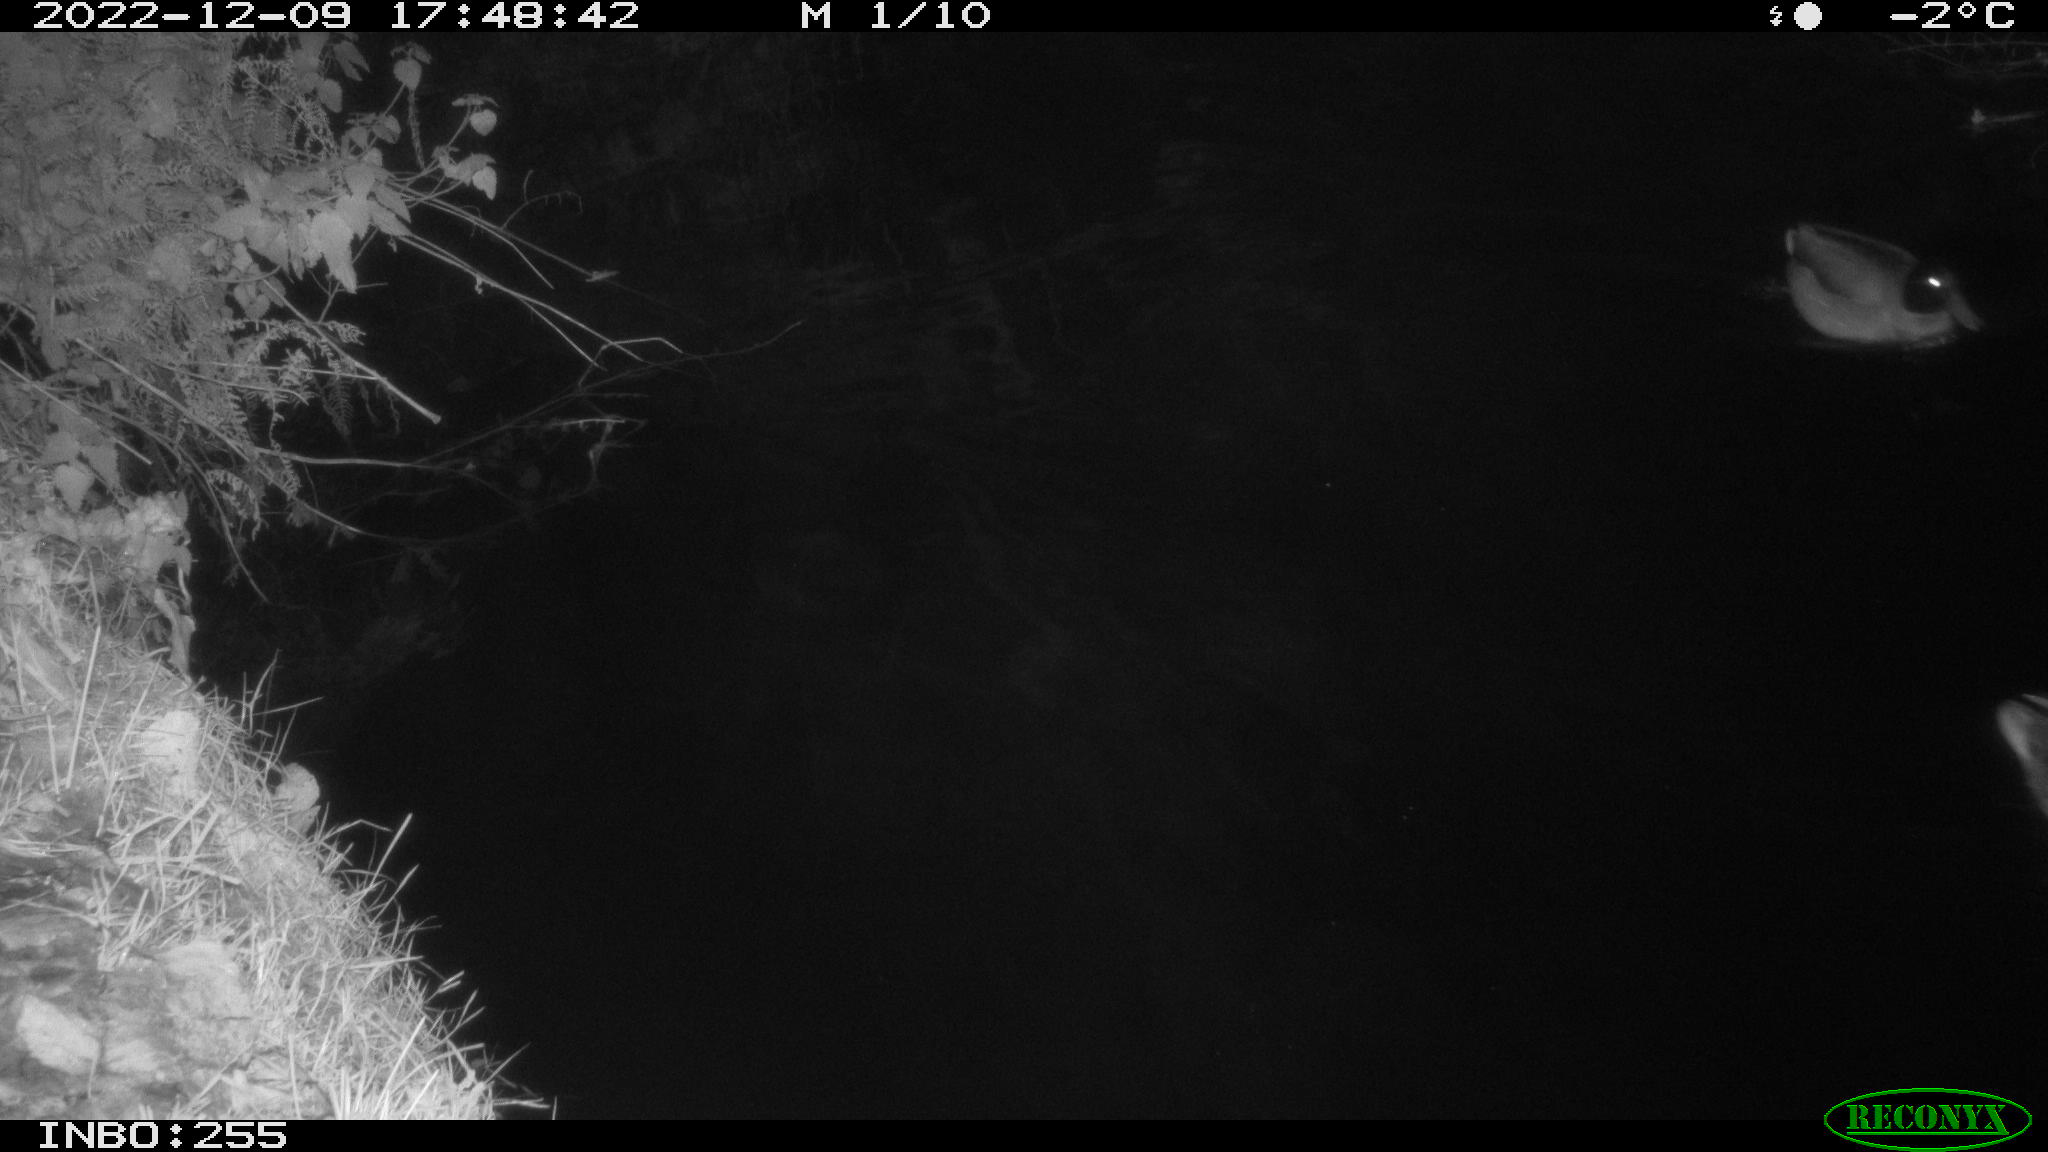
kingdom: Animalia
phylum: Chordata
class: Aves
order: Anseriformes
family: Anatidae
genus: Anas
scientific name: Anas platyrhynchos
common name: Mallard
